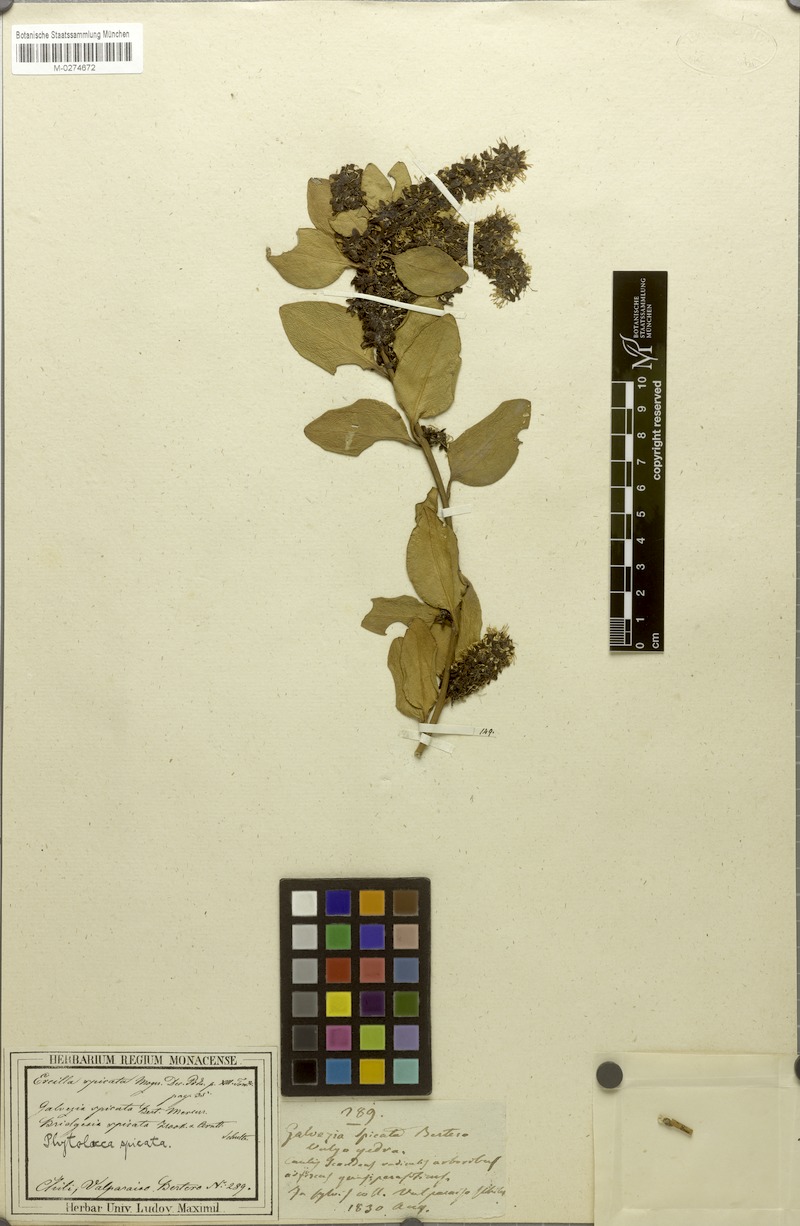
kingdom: Plantae
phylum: Tracheophyta
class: Magnoliopsida
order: Caryophyllales
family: Phytolaccaceae
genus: Ercilla
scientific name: Ercilla spicata
